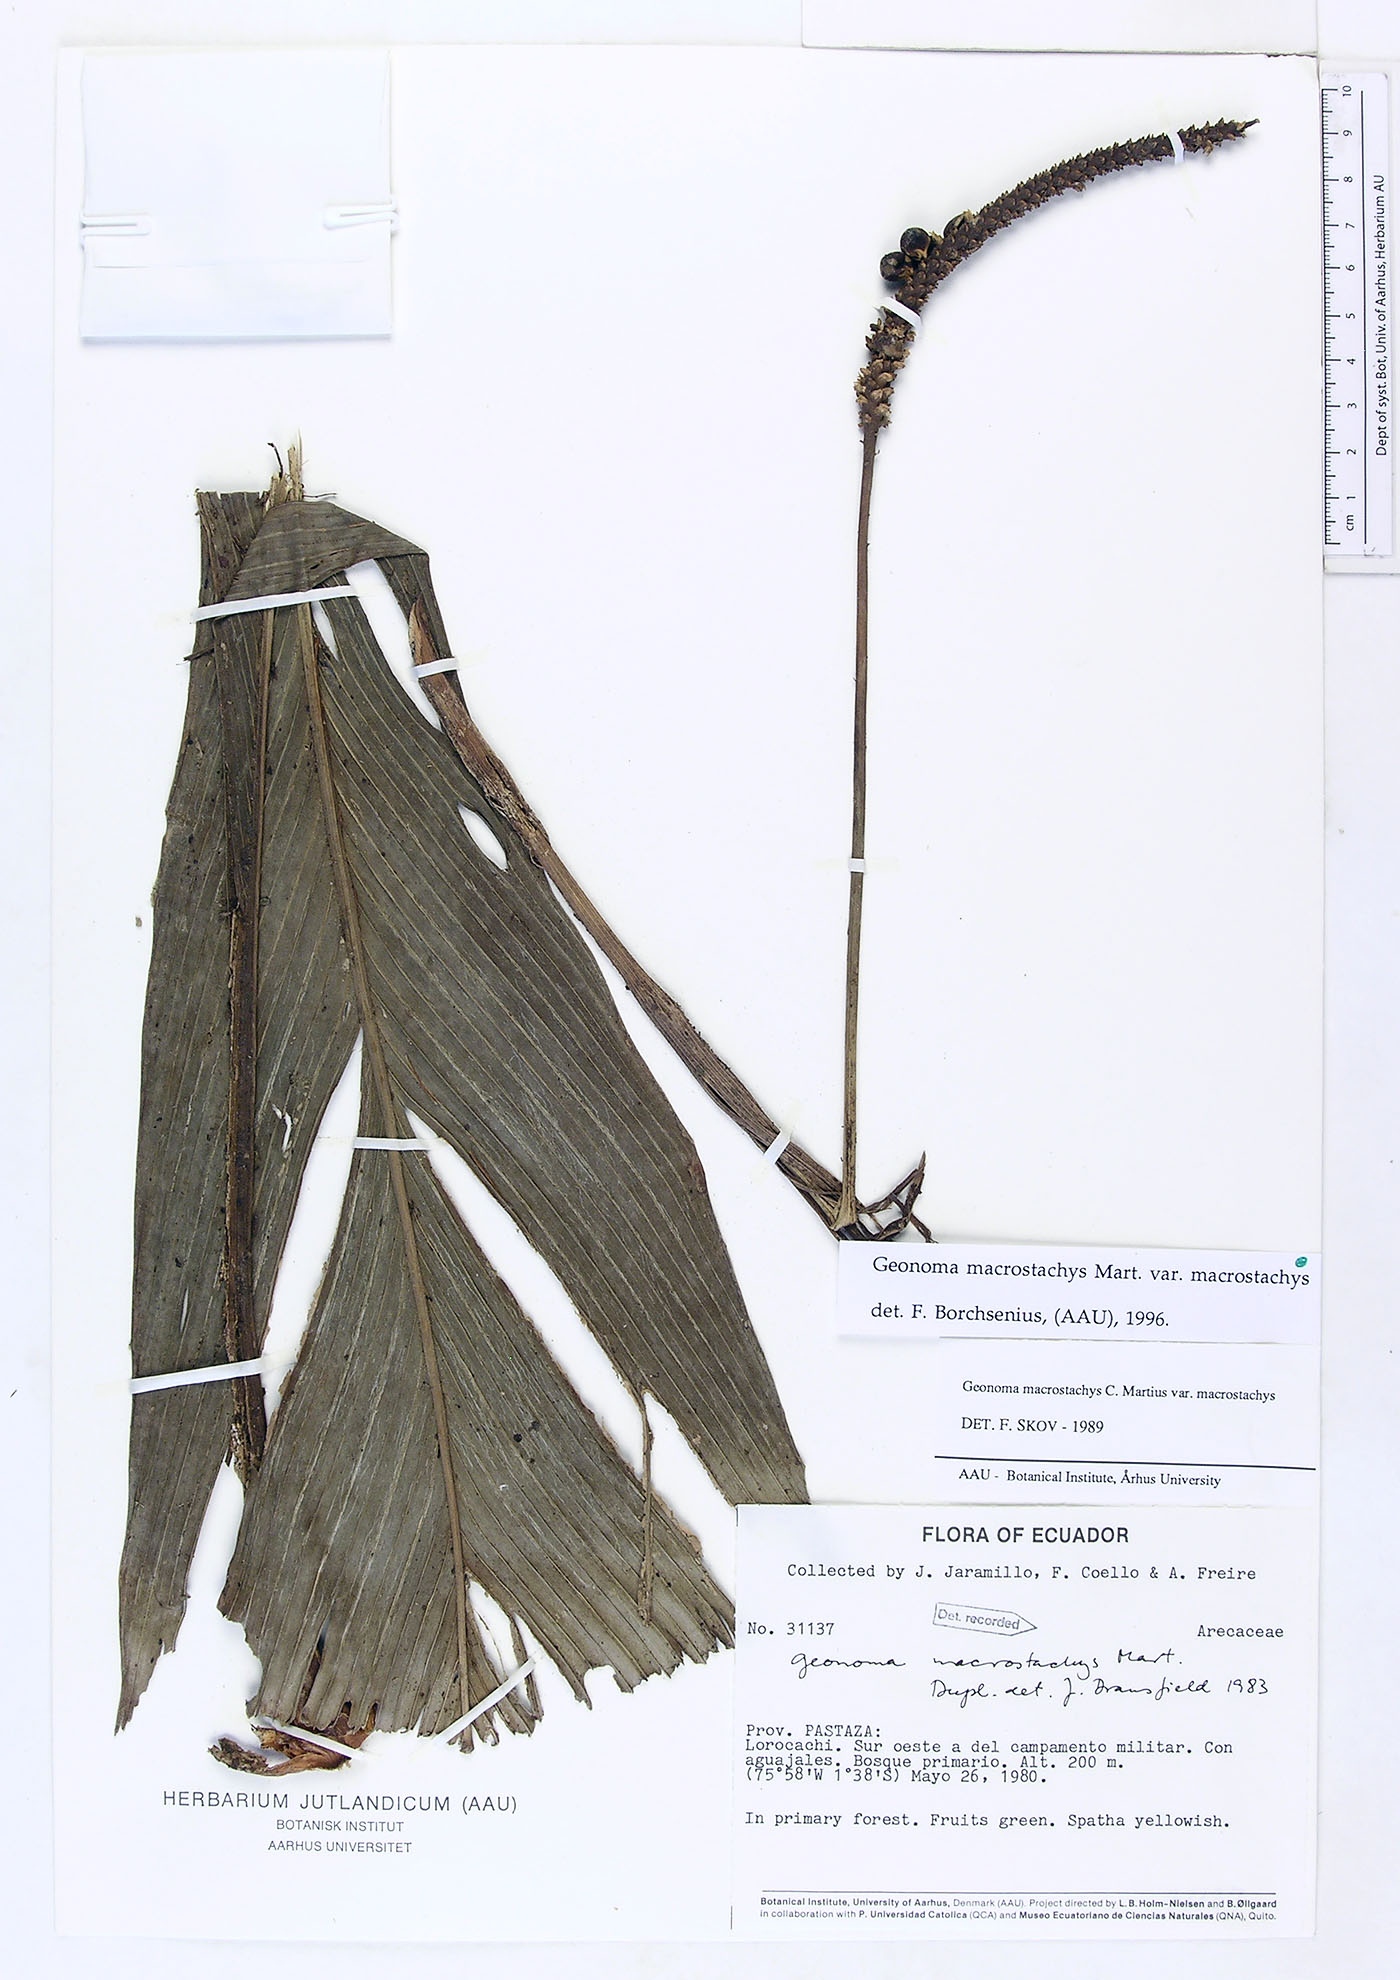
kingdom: Plantae
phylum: Tracheophyta
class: Liliopsida
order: Arecales
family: Arecaceae
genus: Geonoma
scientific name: Geonoma macrostachys
